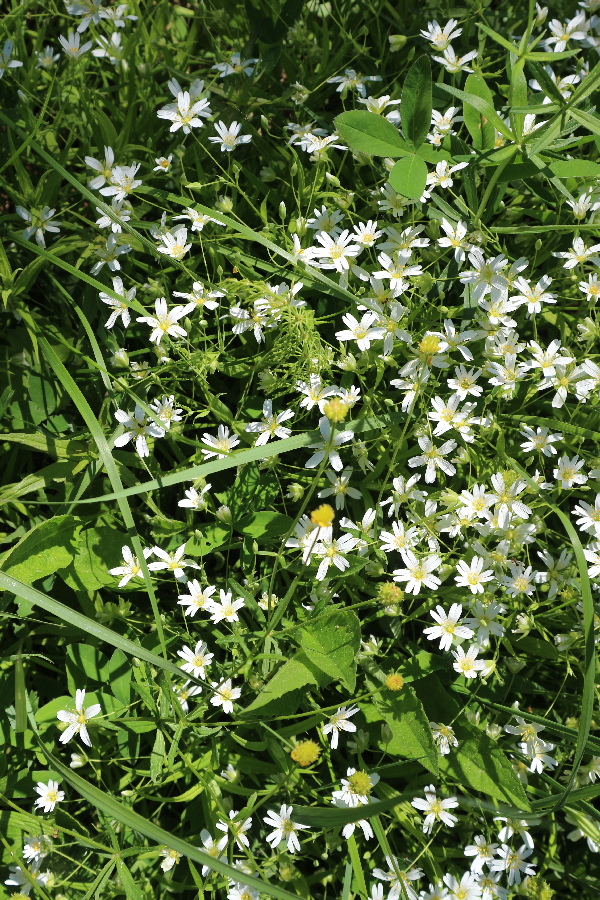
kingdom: Plantae
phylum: Tracheophyta
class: Magnoliopsida
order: Caryophyllales
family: Caryophyllaceae
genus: Rabelera
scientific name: Rabelera holostea
